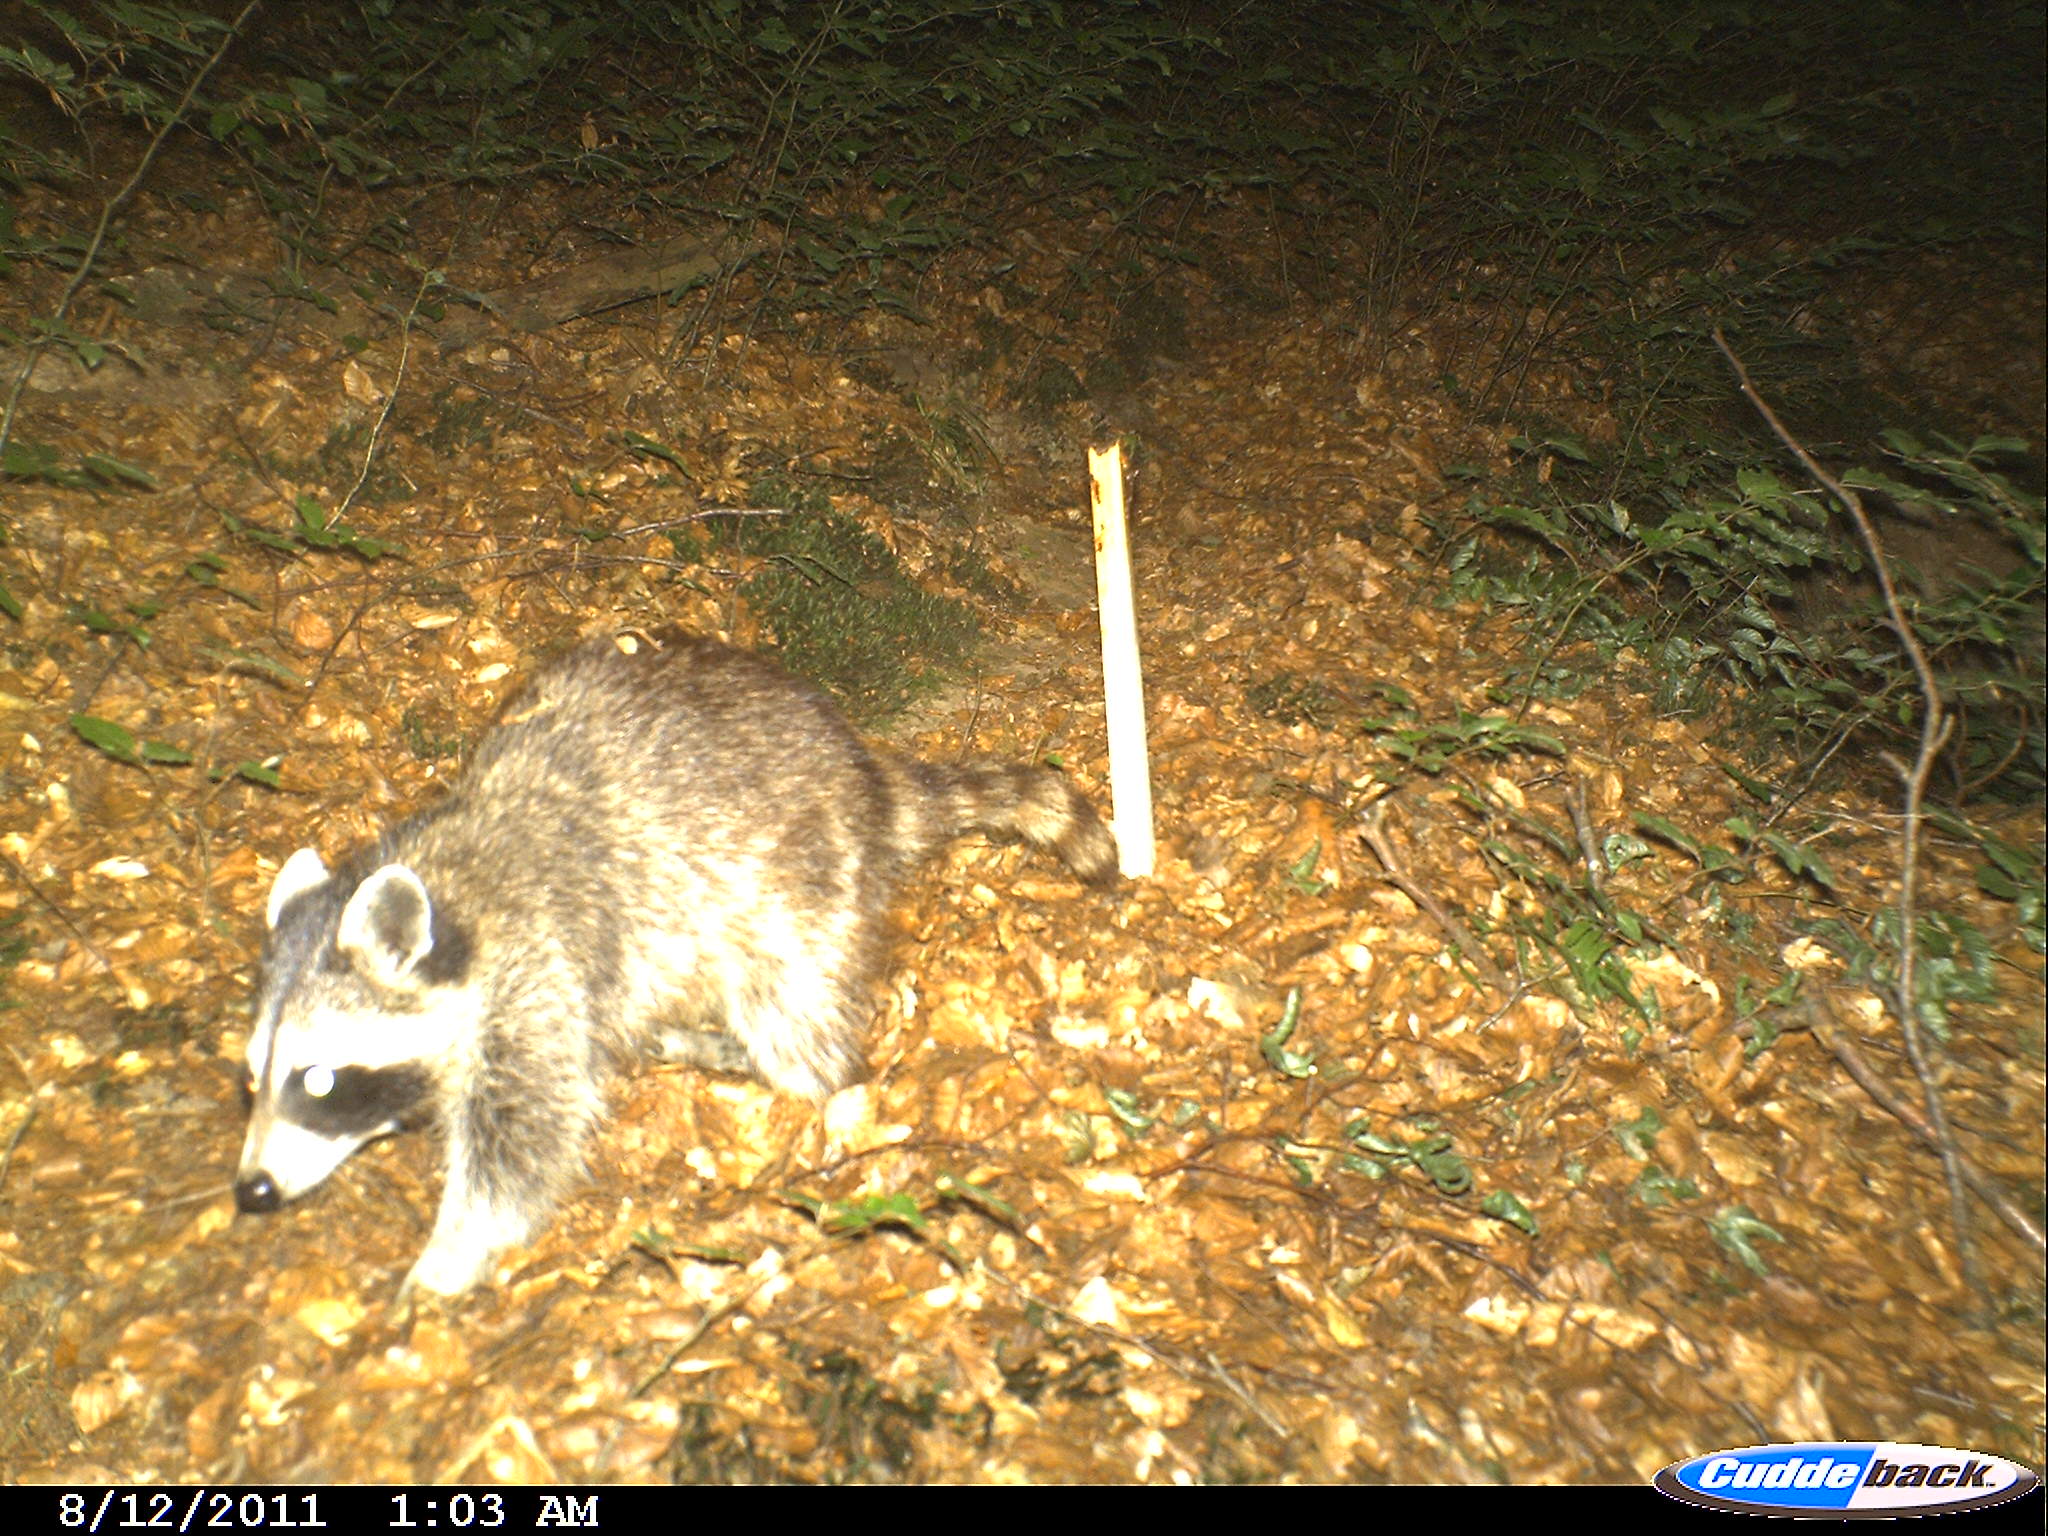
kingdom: Animalia
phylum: Chordata
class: Mammalia
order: Carnivora
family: Procyonidae
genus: Procyon
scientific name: Procyon lotor
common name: Raccoon
